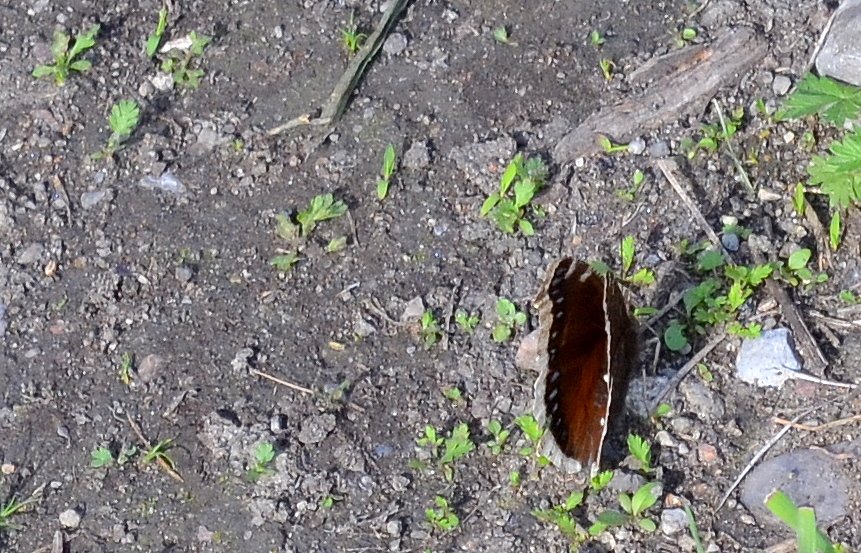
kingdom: Animalia
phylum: Arthropoda
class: Insecta
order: Lepidoptera
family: Nymphalidae
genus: Nymphalis
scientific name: Nymphalis antiopa
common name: Mourning Cloak
